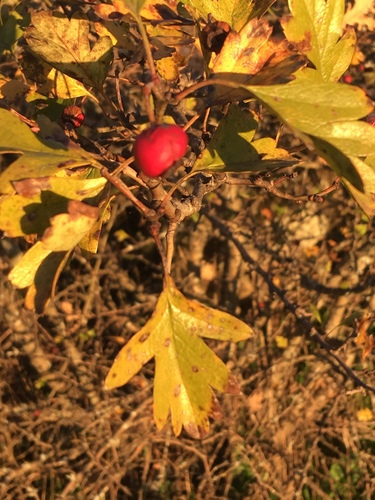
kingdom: Plantae
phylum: Tracheophyta
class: Magnoliopsida
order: Rosales
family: Rosaceae
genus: Crataegus
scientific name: Crataegus monogyna
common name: Hawthorn
